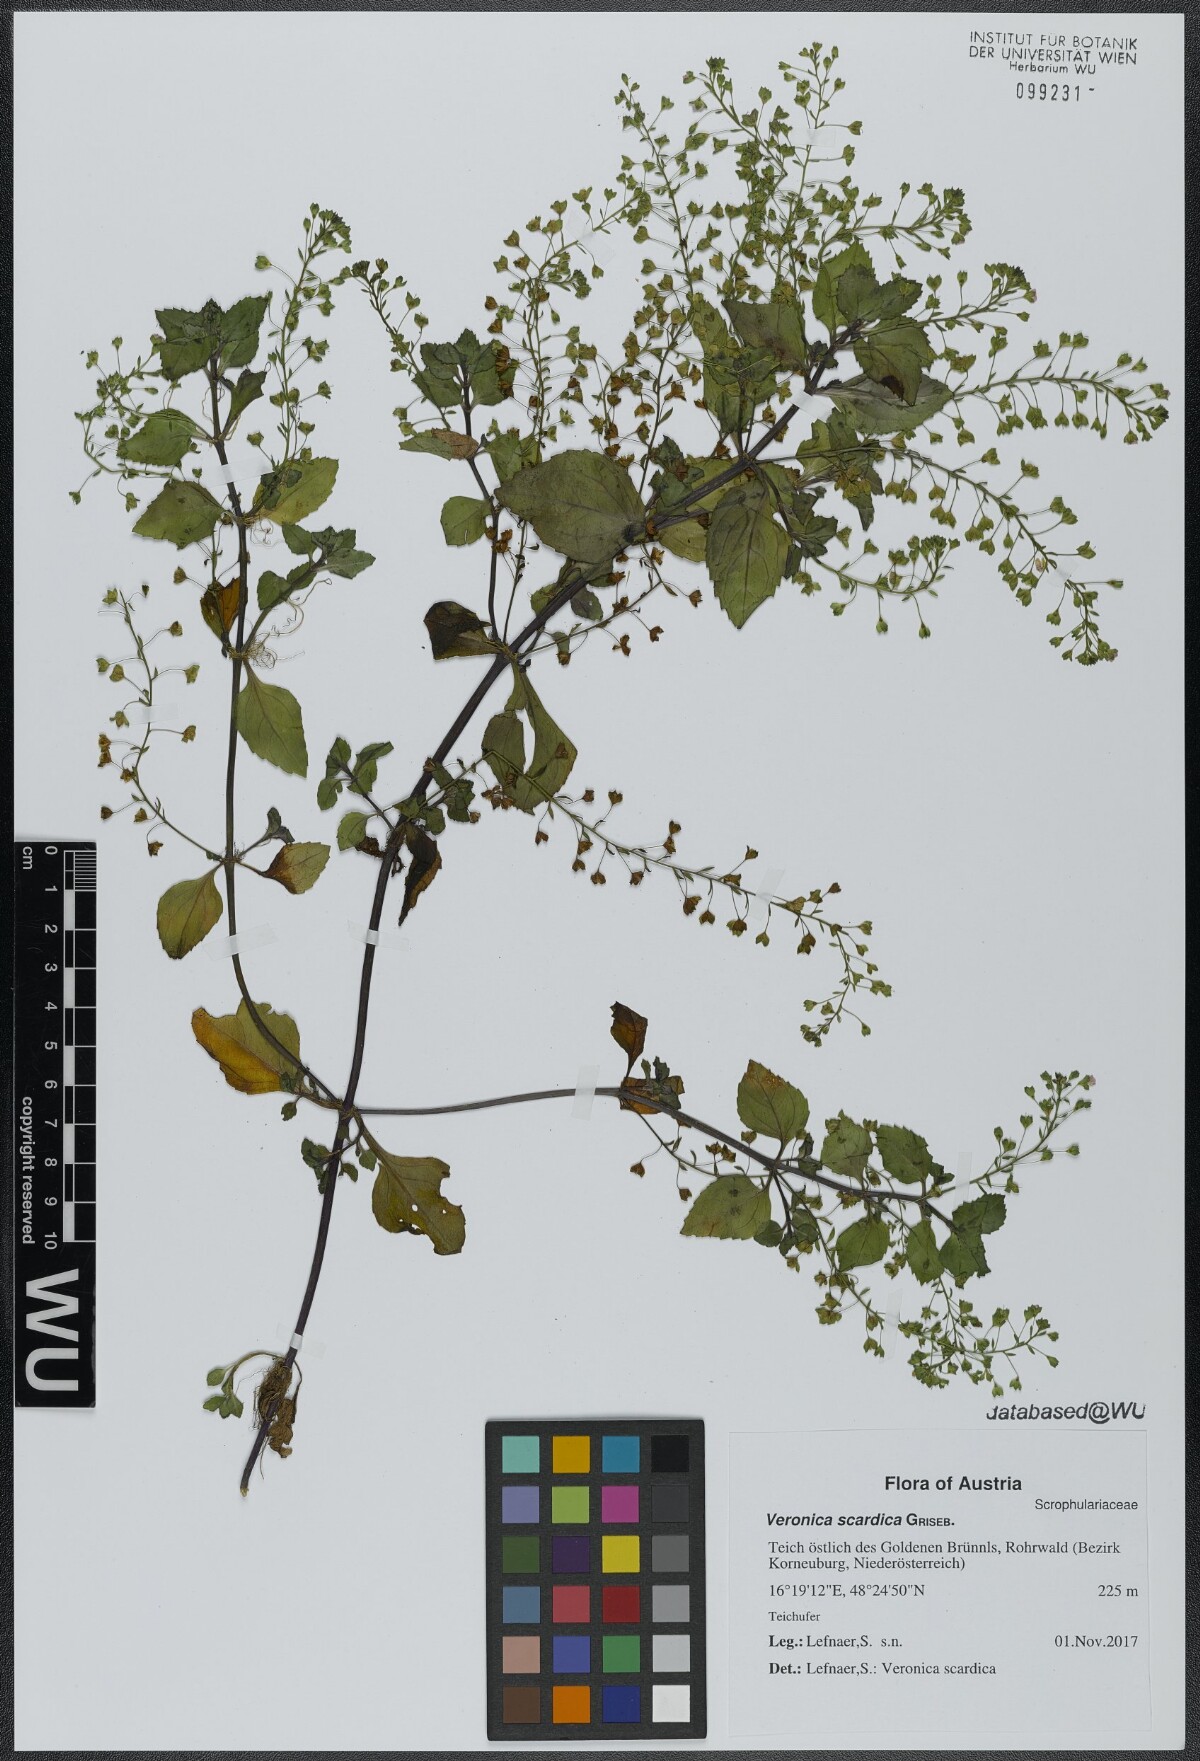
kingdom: Plantae
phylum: Tracheophyta
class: Magnoliopsida
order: Lamiales
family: Plantaginaceae
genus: Veronica
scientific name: Veronica scardica
